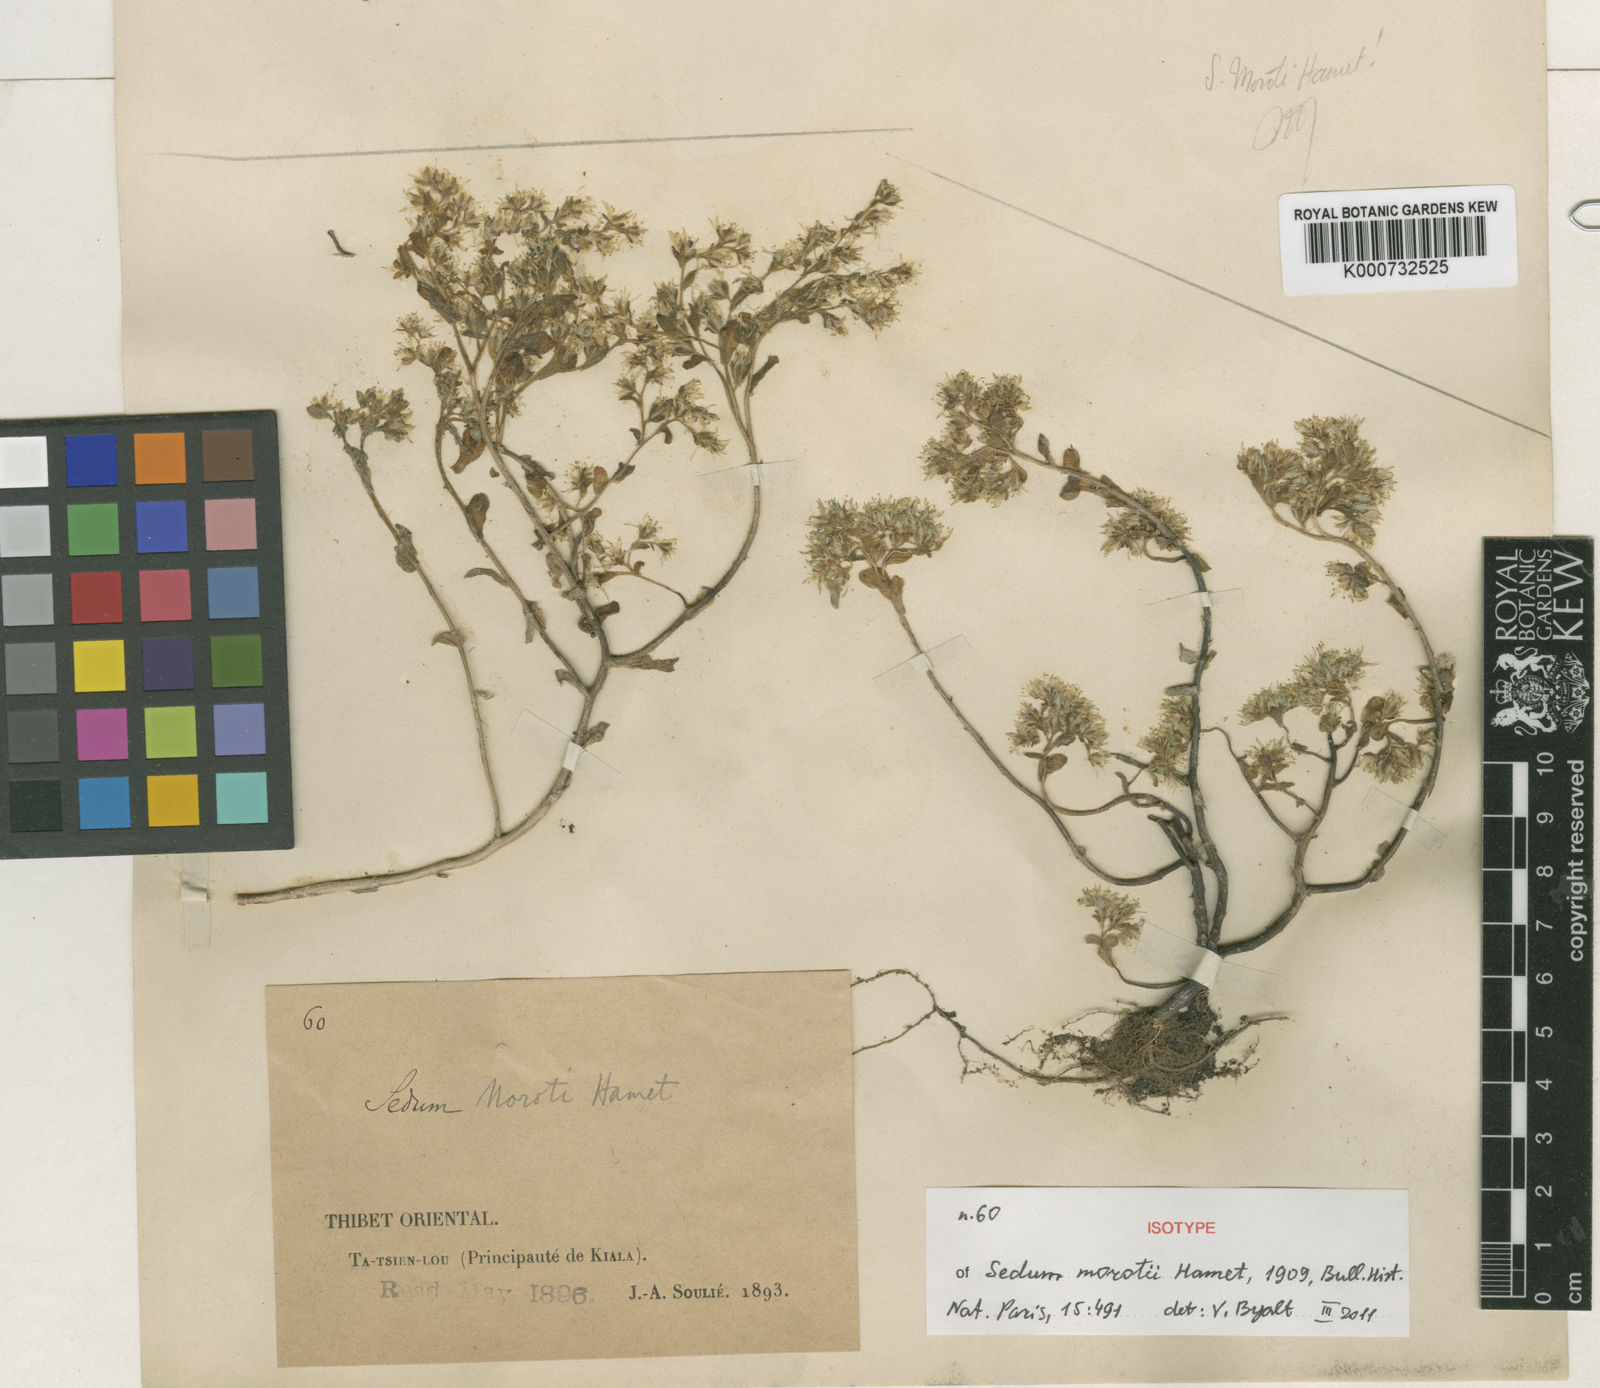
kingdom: Plantae
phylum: Tracheophyta
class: Magnoliopsida
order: Saxifragales
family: Crassulaceae
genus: Sedum
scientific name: Sedum obtusipetalum
